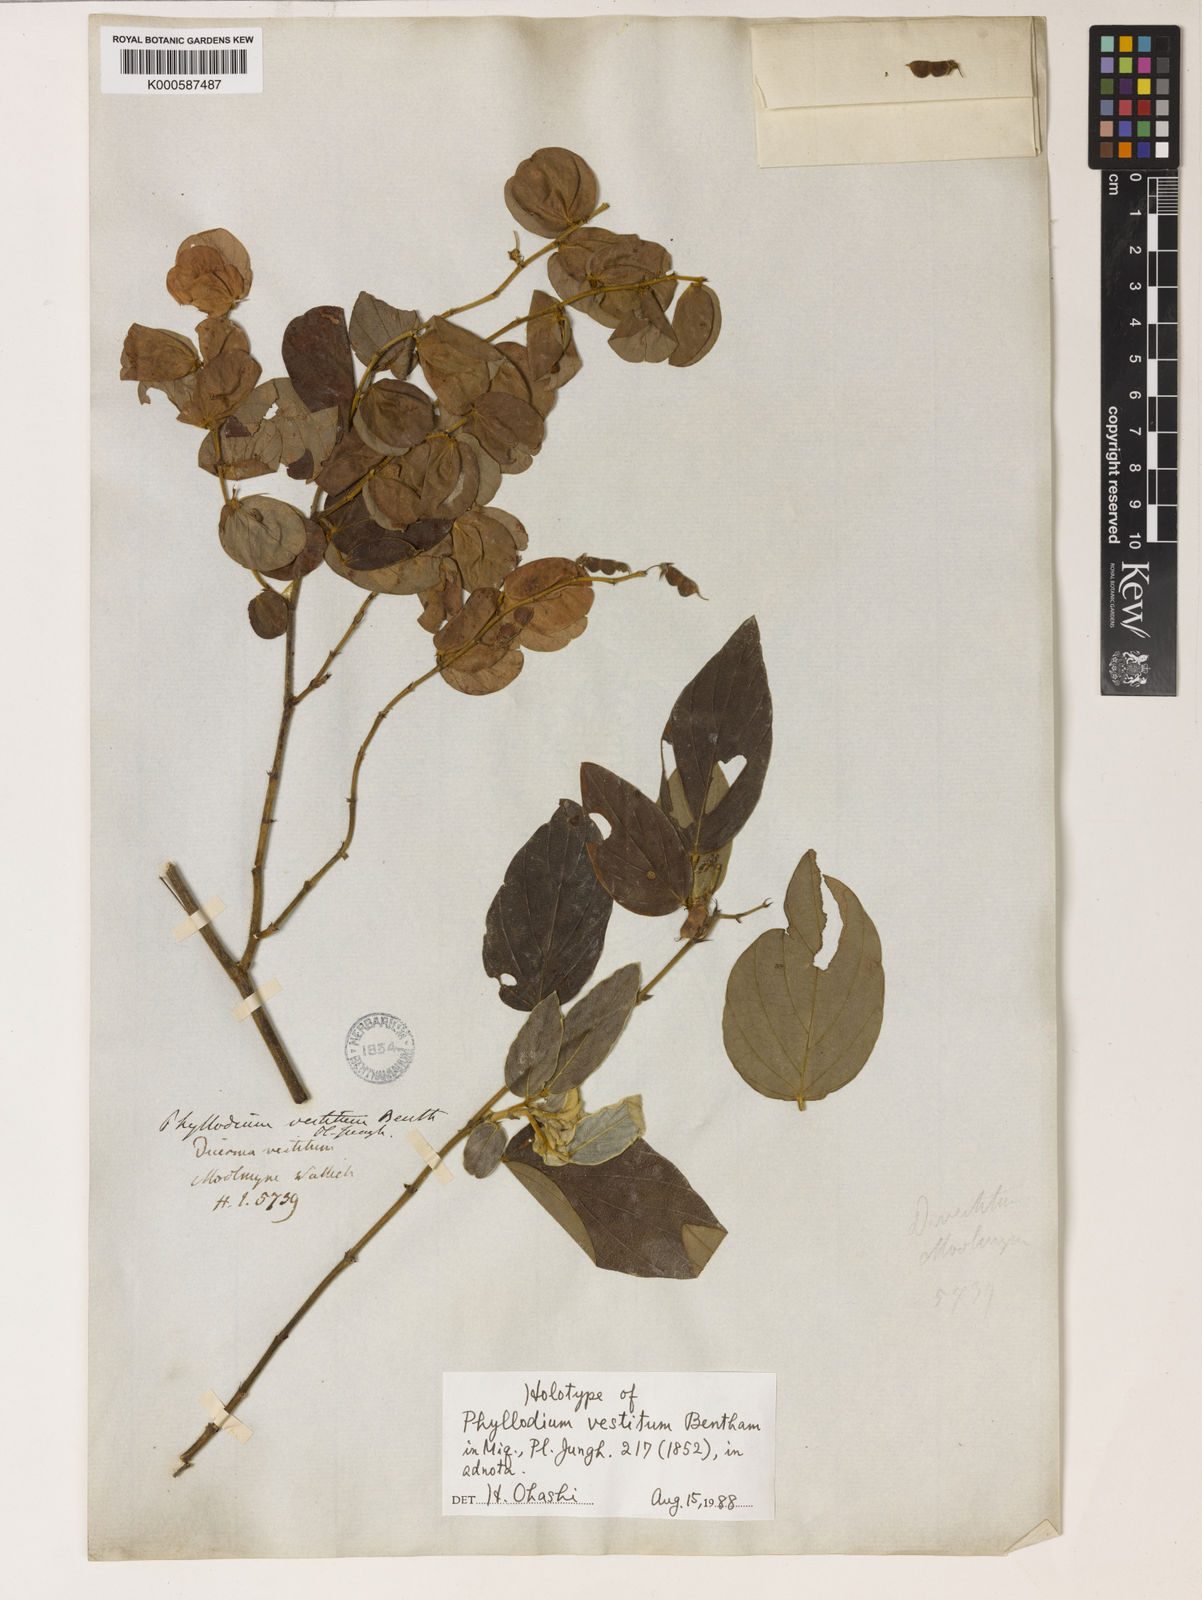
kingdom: Plantae
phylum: Tracheophyta
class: Magnoliopsida
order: Fabales
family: Fabaceae
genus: Phyllodium
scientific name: Phyllodium vestitum
